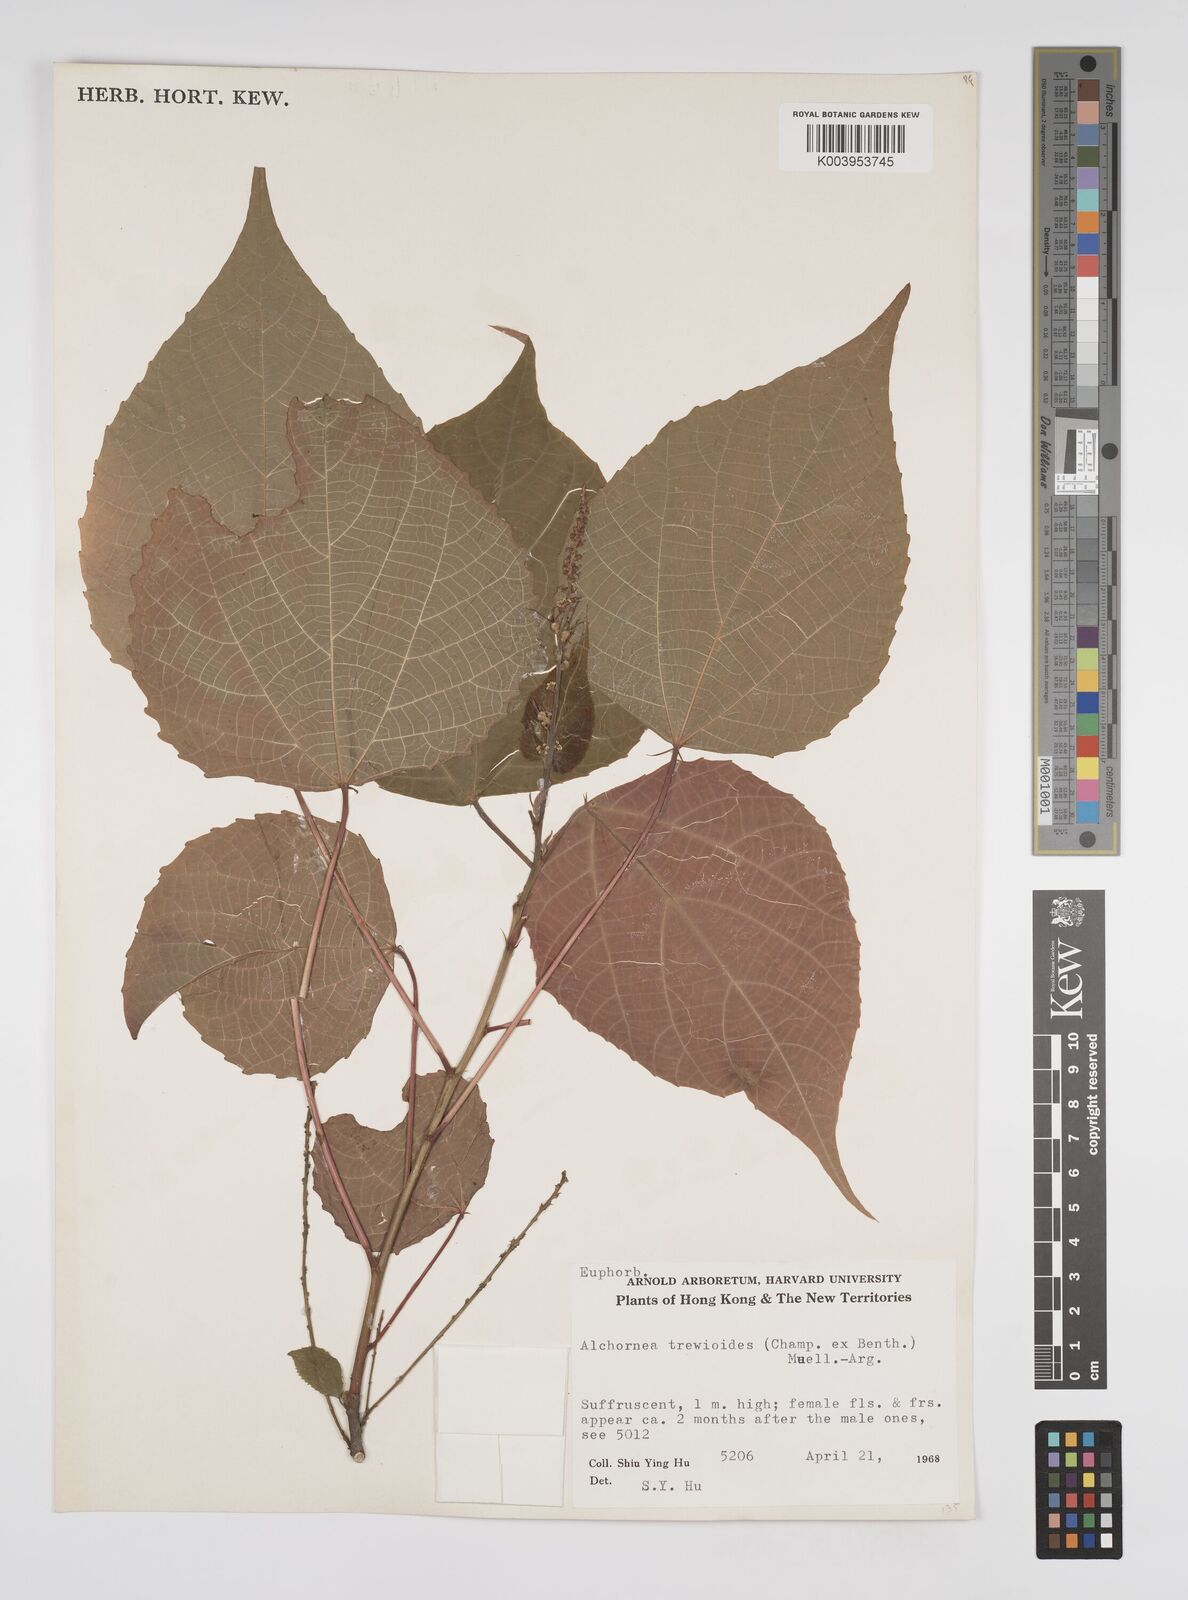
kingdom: Plantae
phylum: Tracheophyta
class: Magnoliopsida
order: Malpighiales
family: Euphorbiaceae
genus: Alchornea
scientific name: Alchornea trewioides
